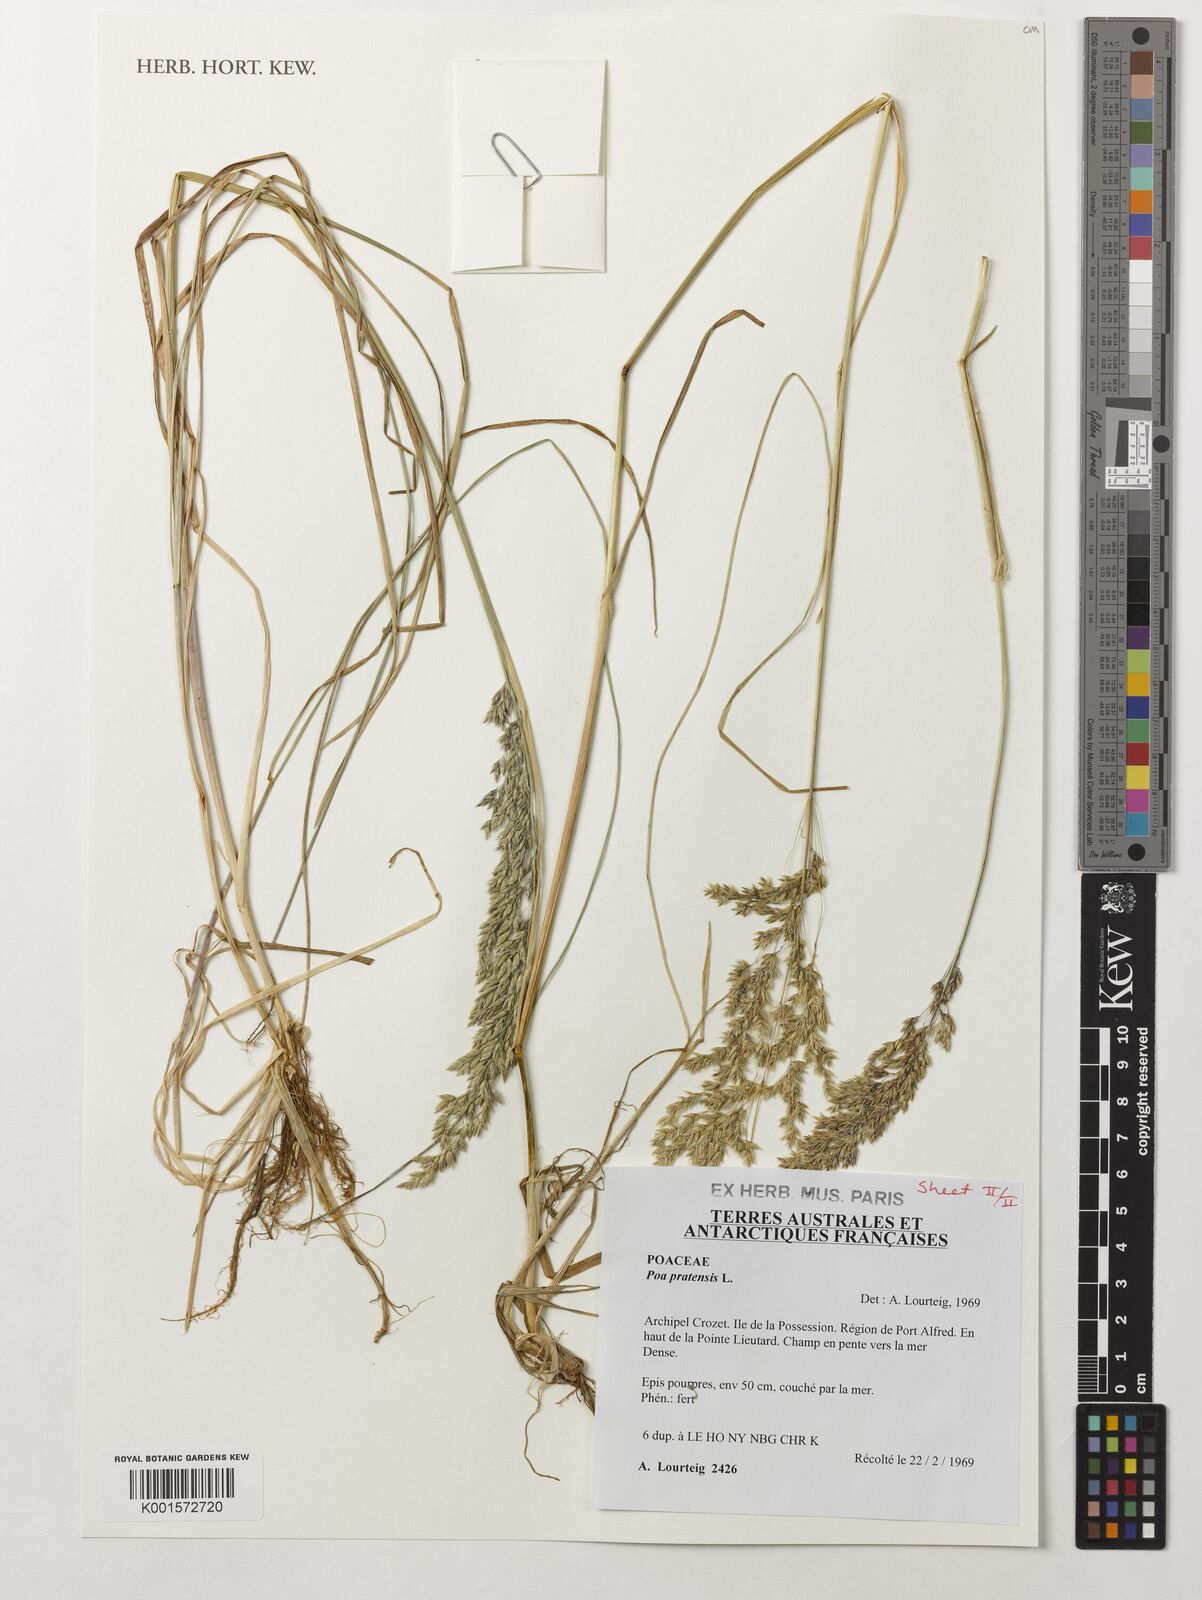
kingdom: Plantae
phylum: Tracheophyta
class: Liliopsida
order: Poales
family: Poaceae
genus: Poa
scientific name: Poa pratensis
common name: Kentucky bluegrass
